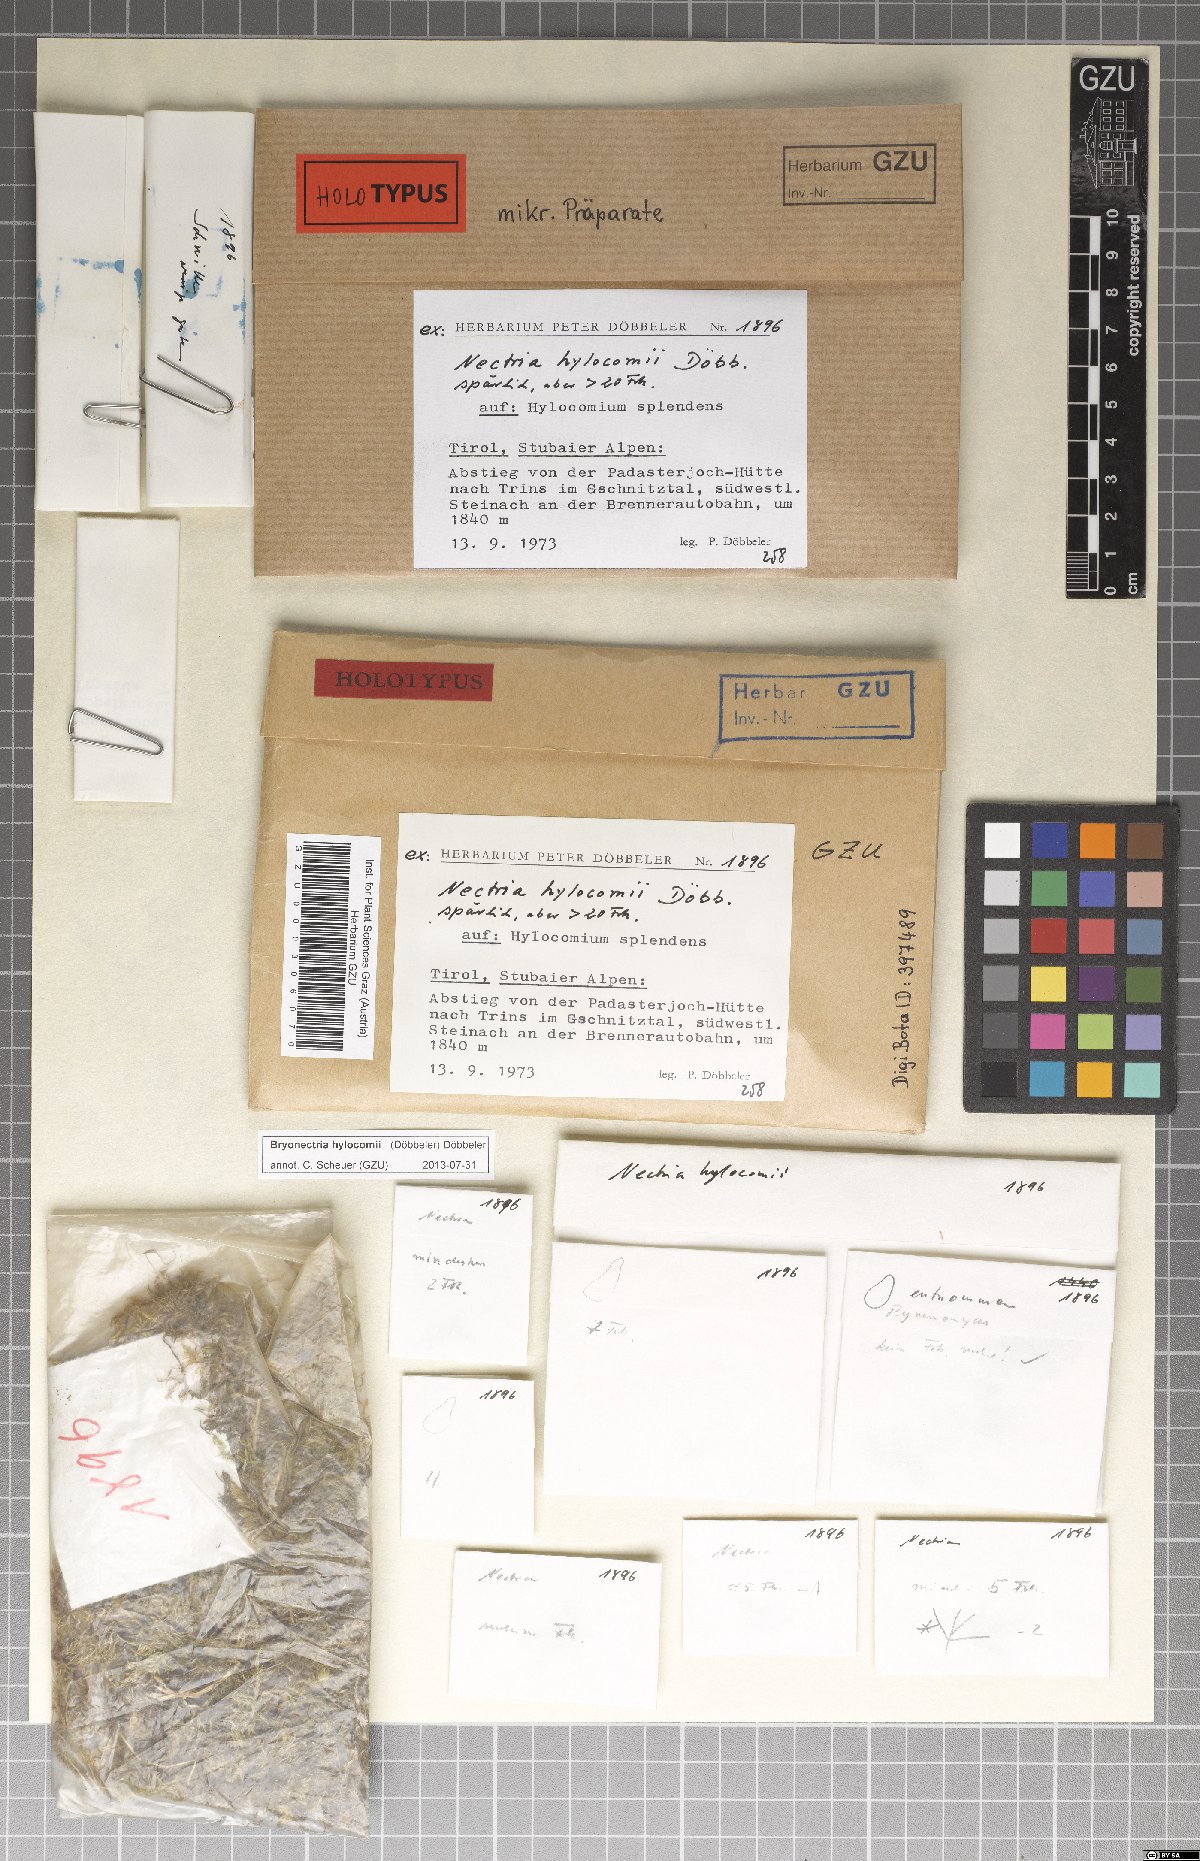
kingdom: Fungi
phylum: Ascomycota
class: Sordariomycetes
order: Hypocreales
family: Bionectriaceae
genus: Bryonectria
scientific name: Bryonectria hylocomii
